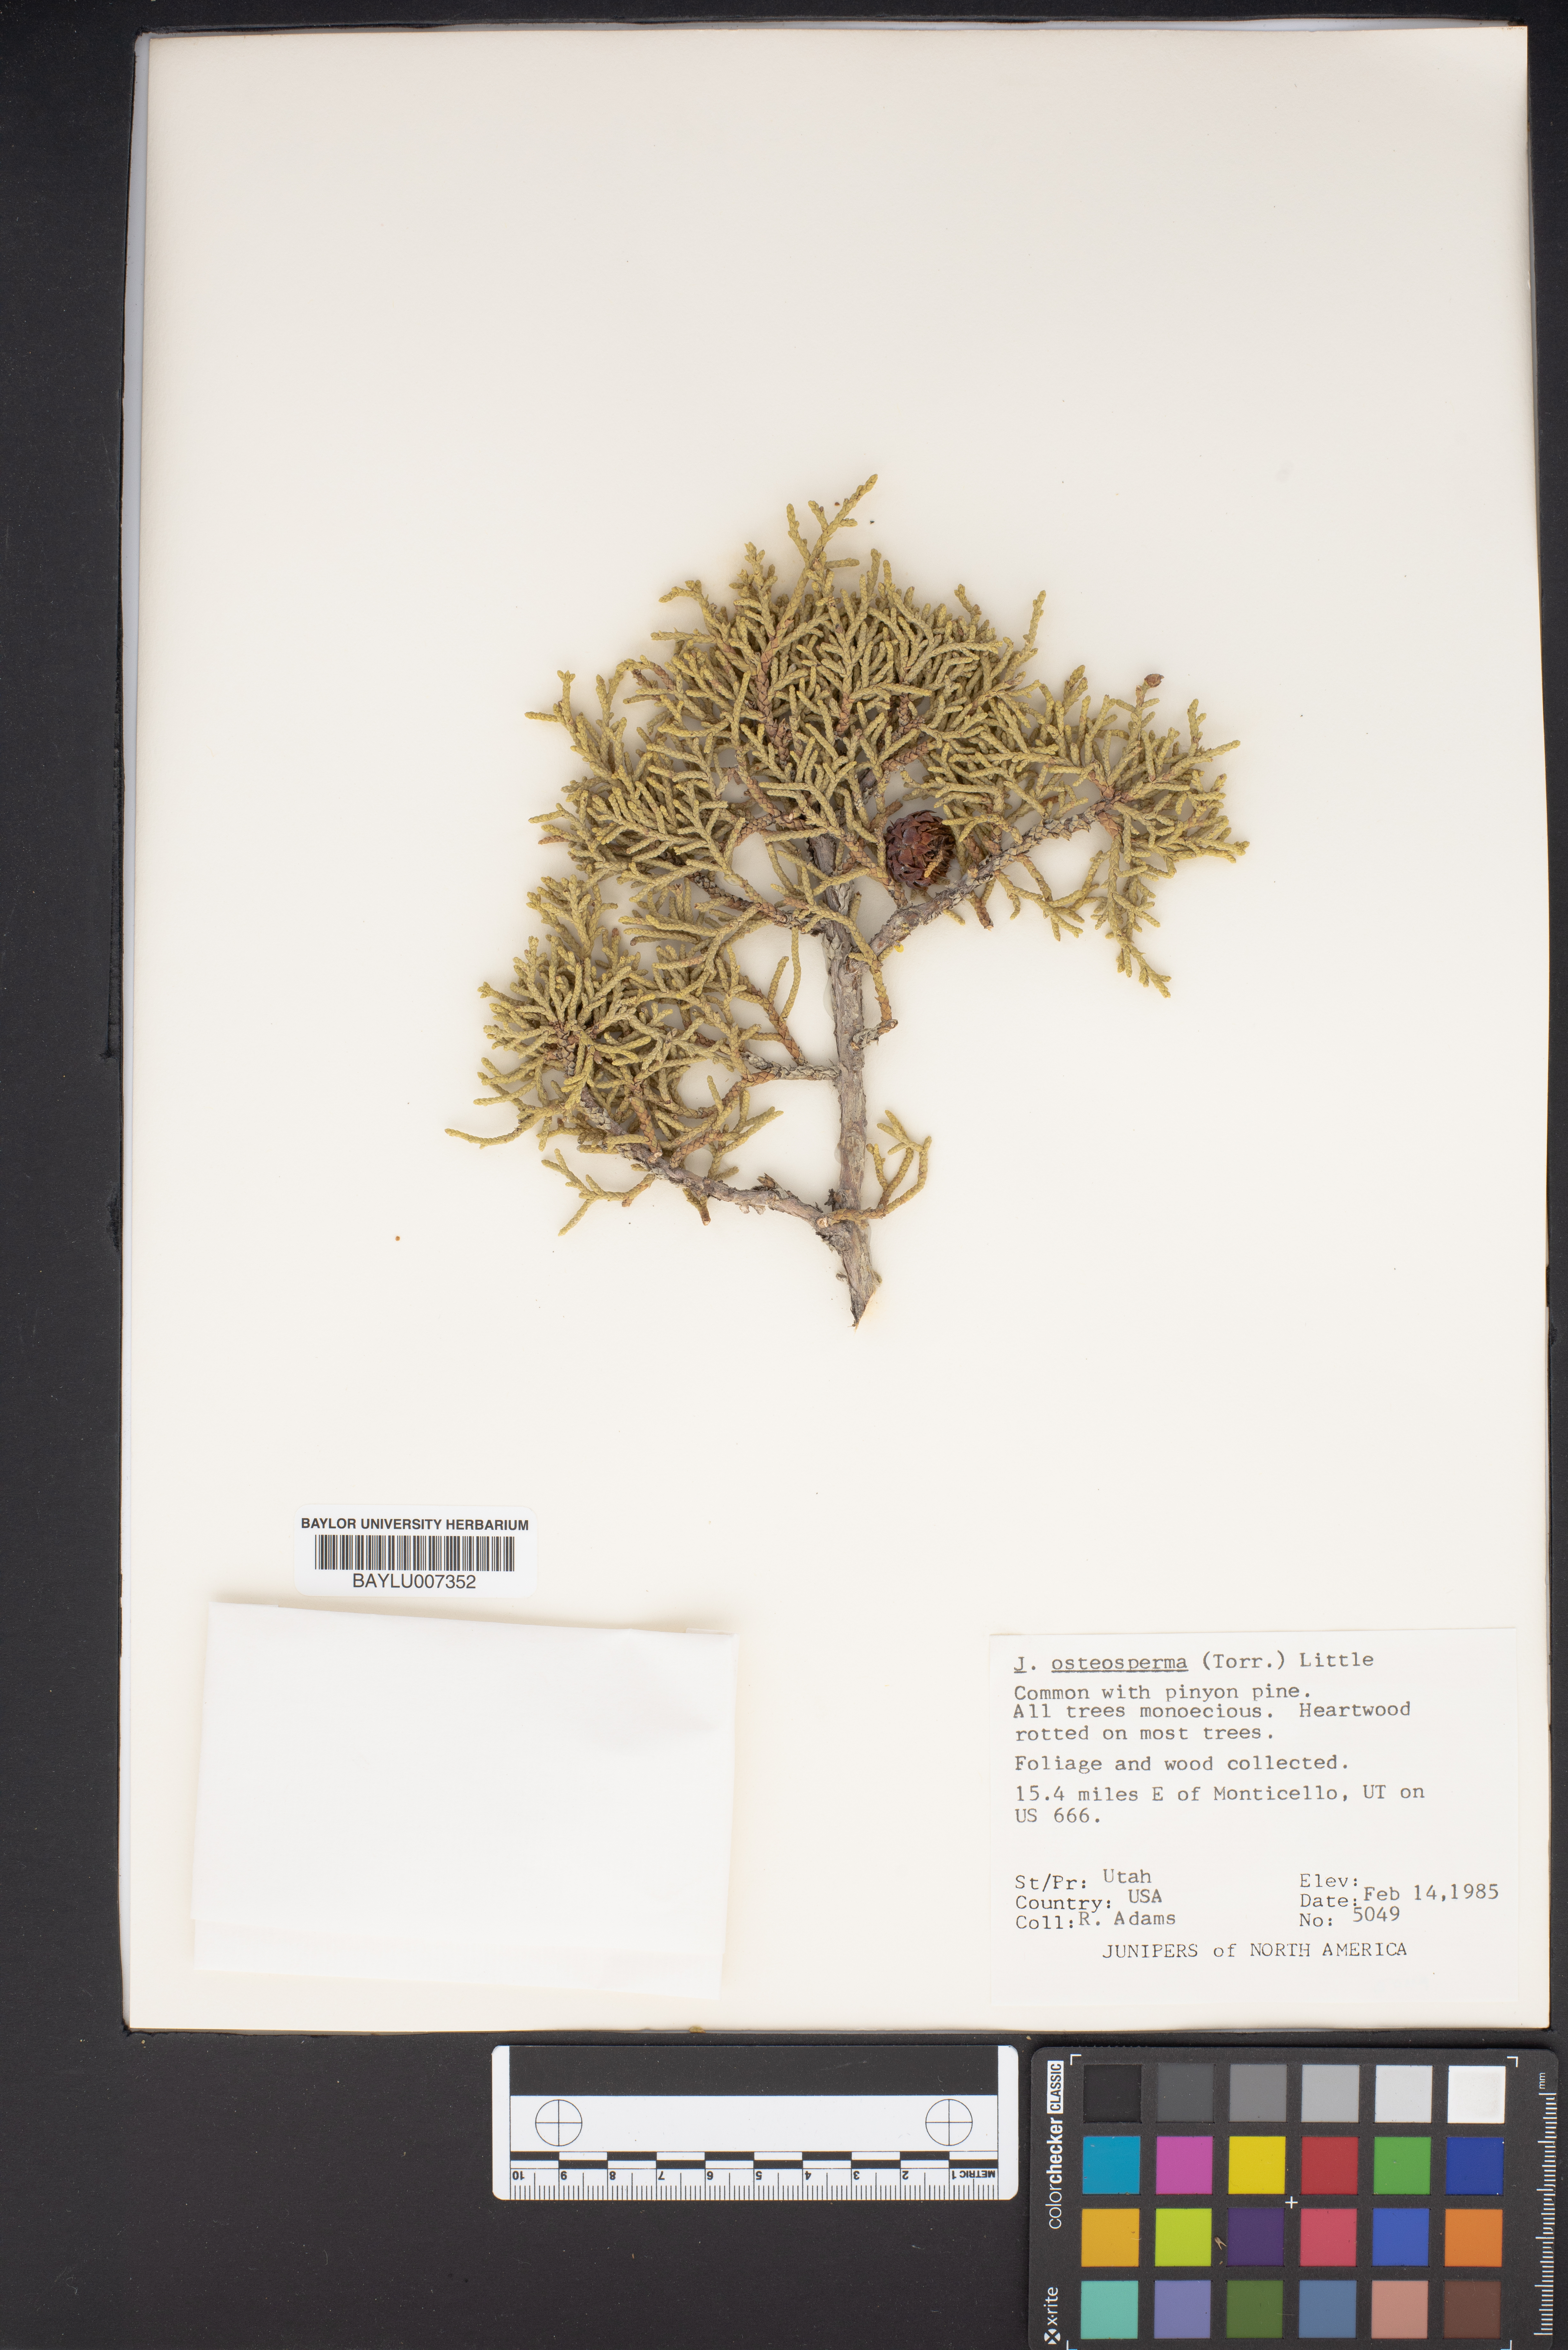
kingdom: Plantae
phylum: Tracheophyta
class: Pinopsida
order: Pinales
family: Cupressaceae
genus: Juniperus
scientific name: Juniperus osteosperma
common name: Utah juniper
